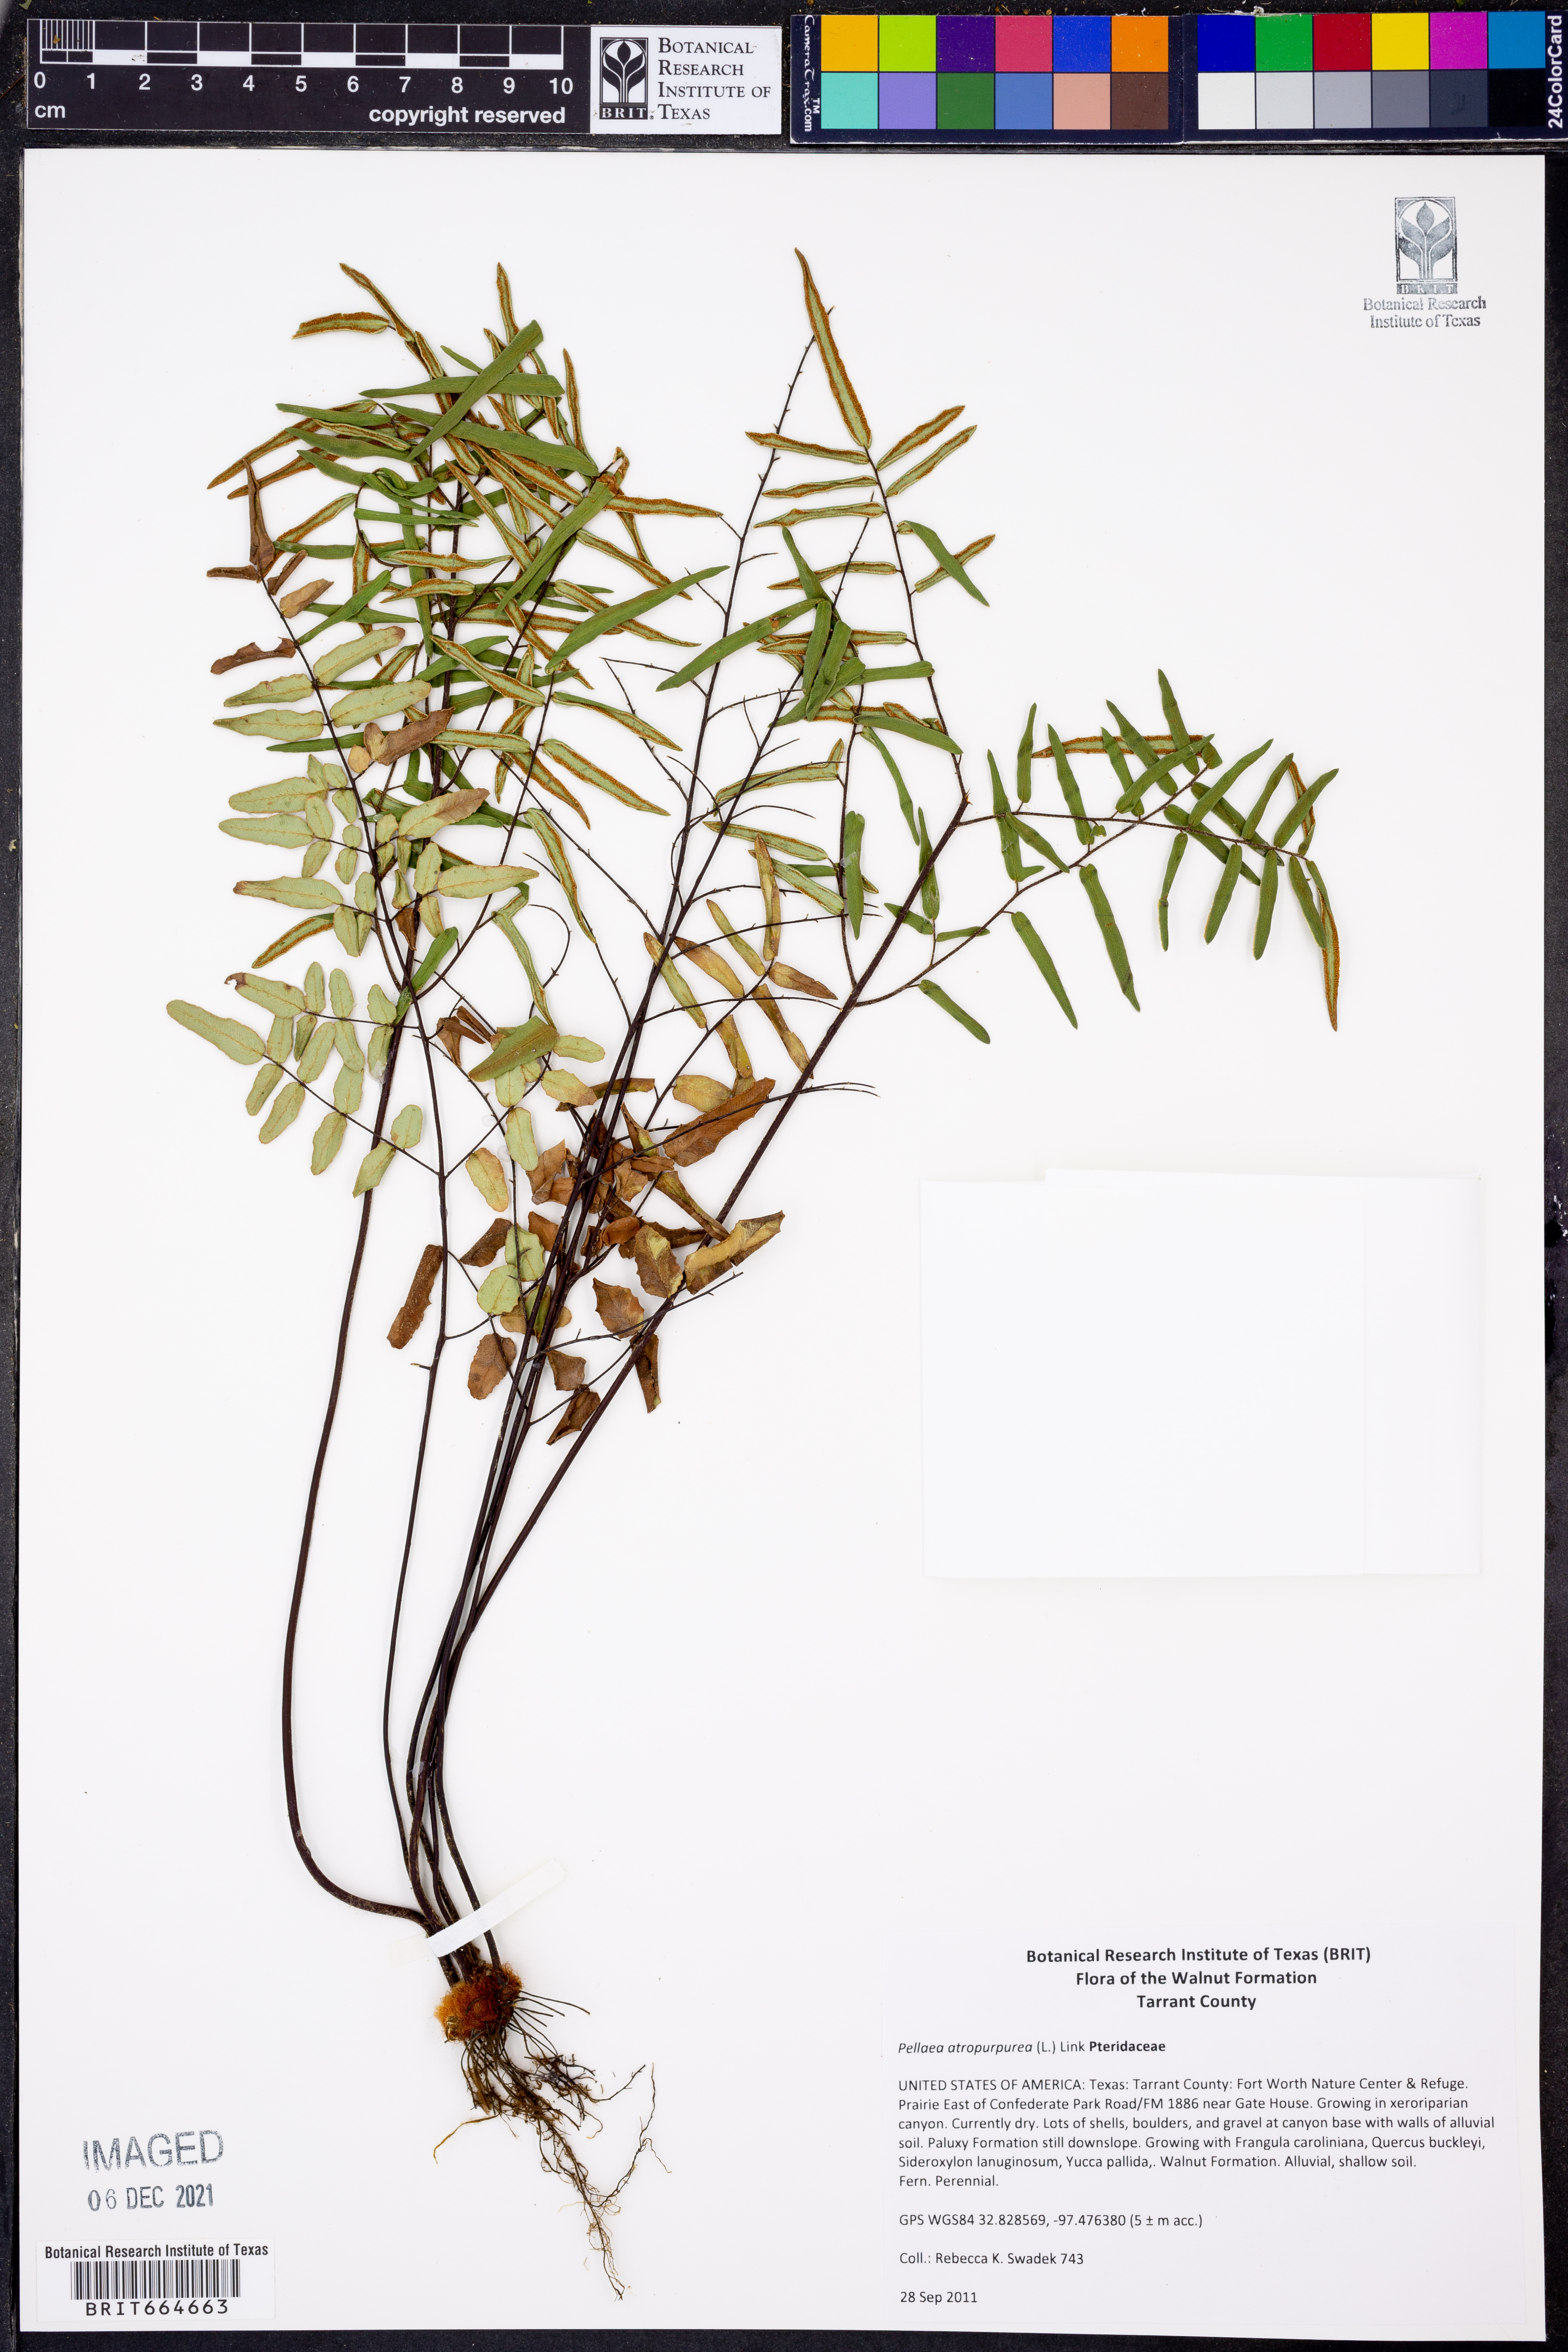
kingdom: Plantae
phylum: Tracheophyta
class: Polypodiopsida
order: Polypodiales
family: Pteridaceae
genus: Pellaea
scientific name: Pellaea atropurpurea
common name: Hairy cliffbrake
